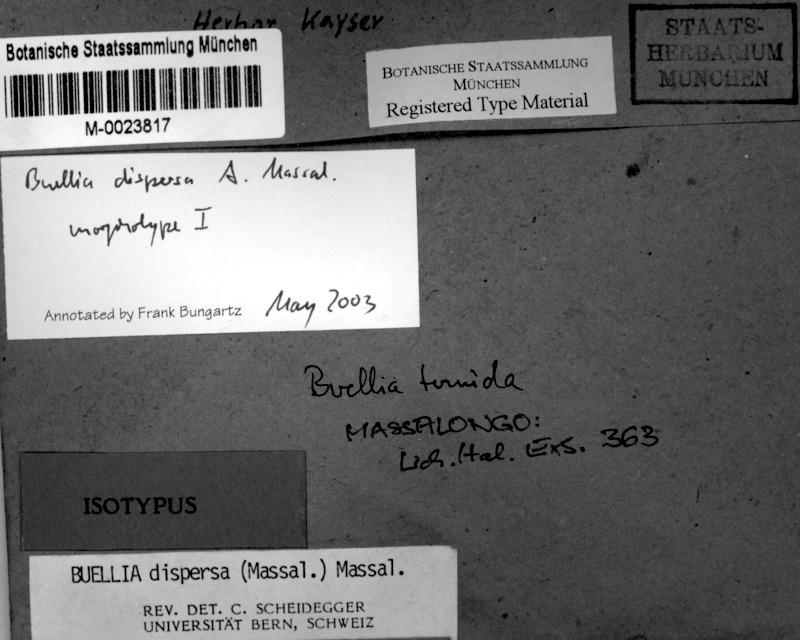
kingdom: Fungi
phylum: Ascomycota
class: Lecanoromycetes
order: Caliciales
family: Caliciaceae
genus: Buellia
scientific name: Buellia dispersa
